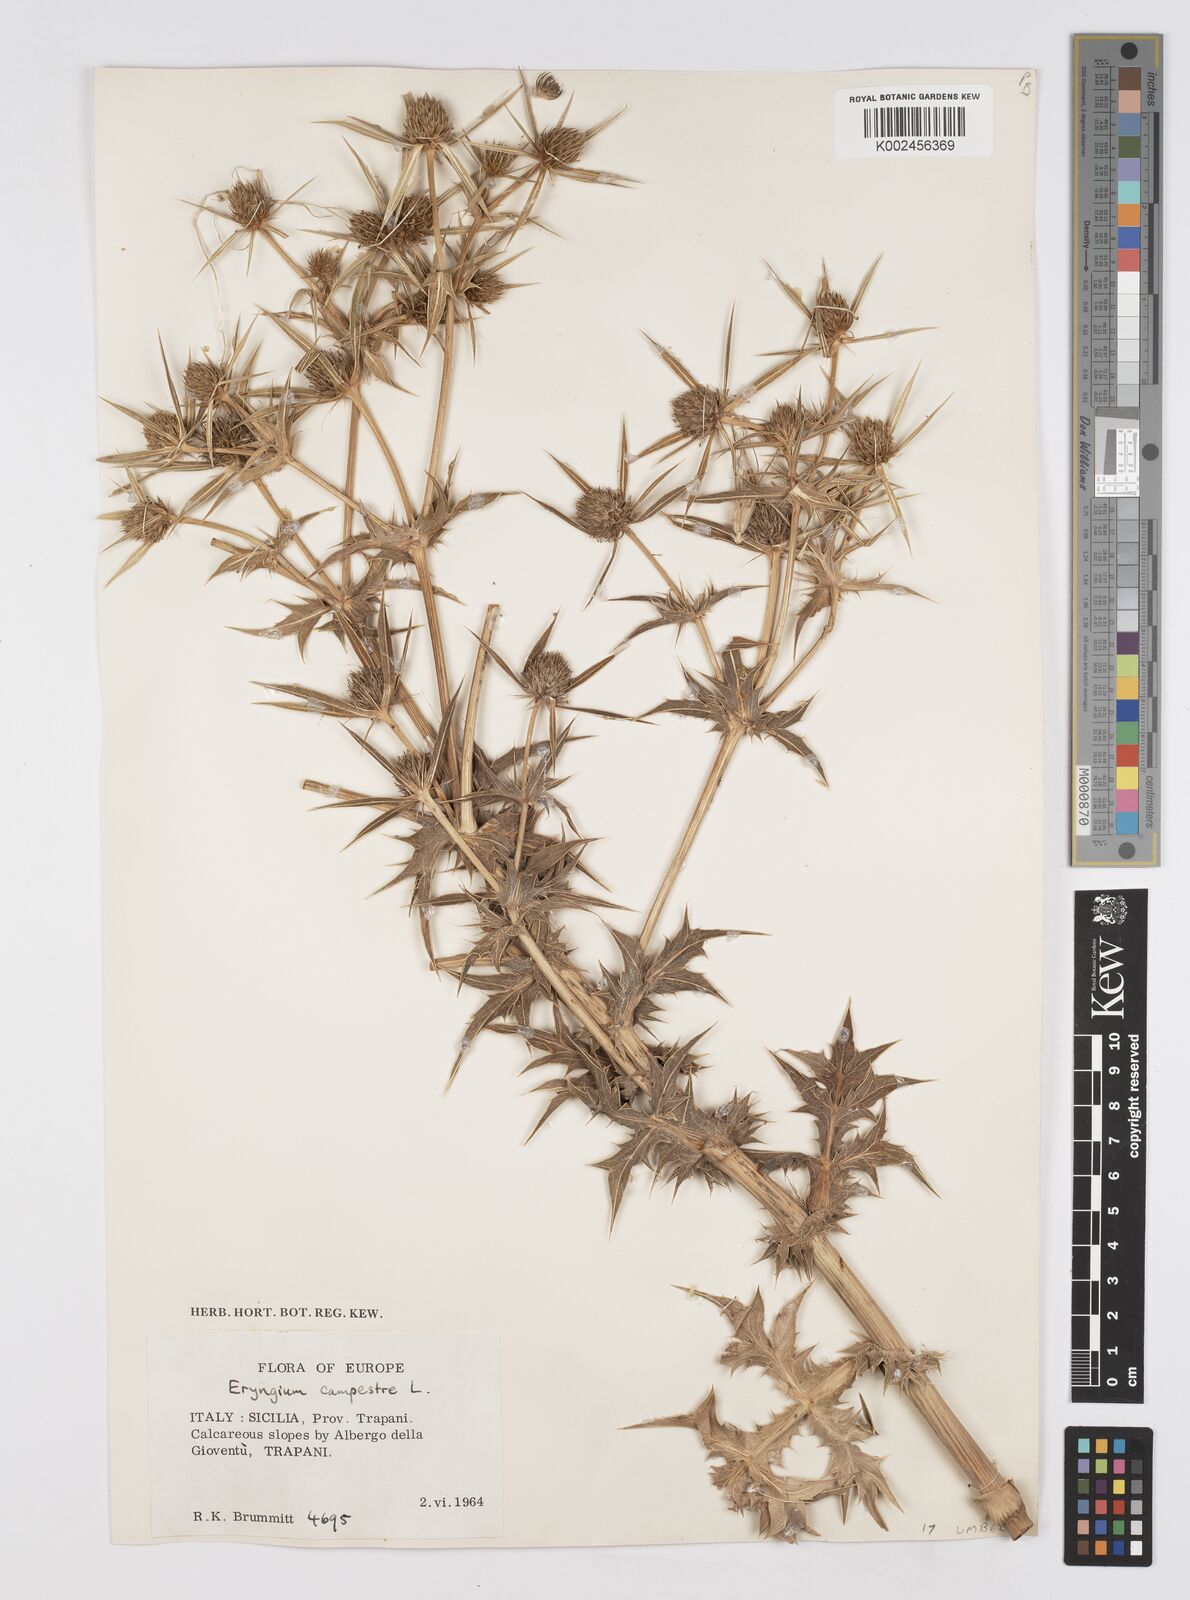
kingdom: Plantae
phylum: Tracheophyta
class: Magnoliopsida
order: Apiales
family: Apiaceae
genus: Eryngium
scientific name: Eryngium campestre
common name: Field eryngo
